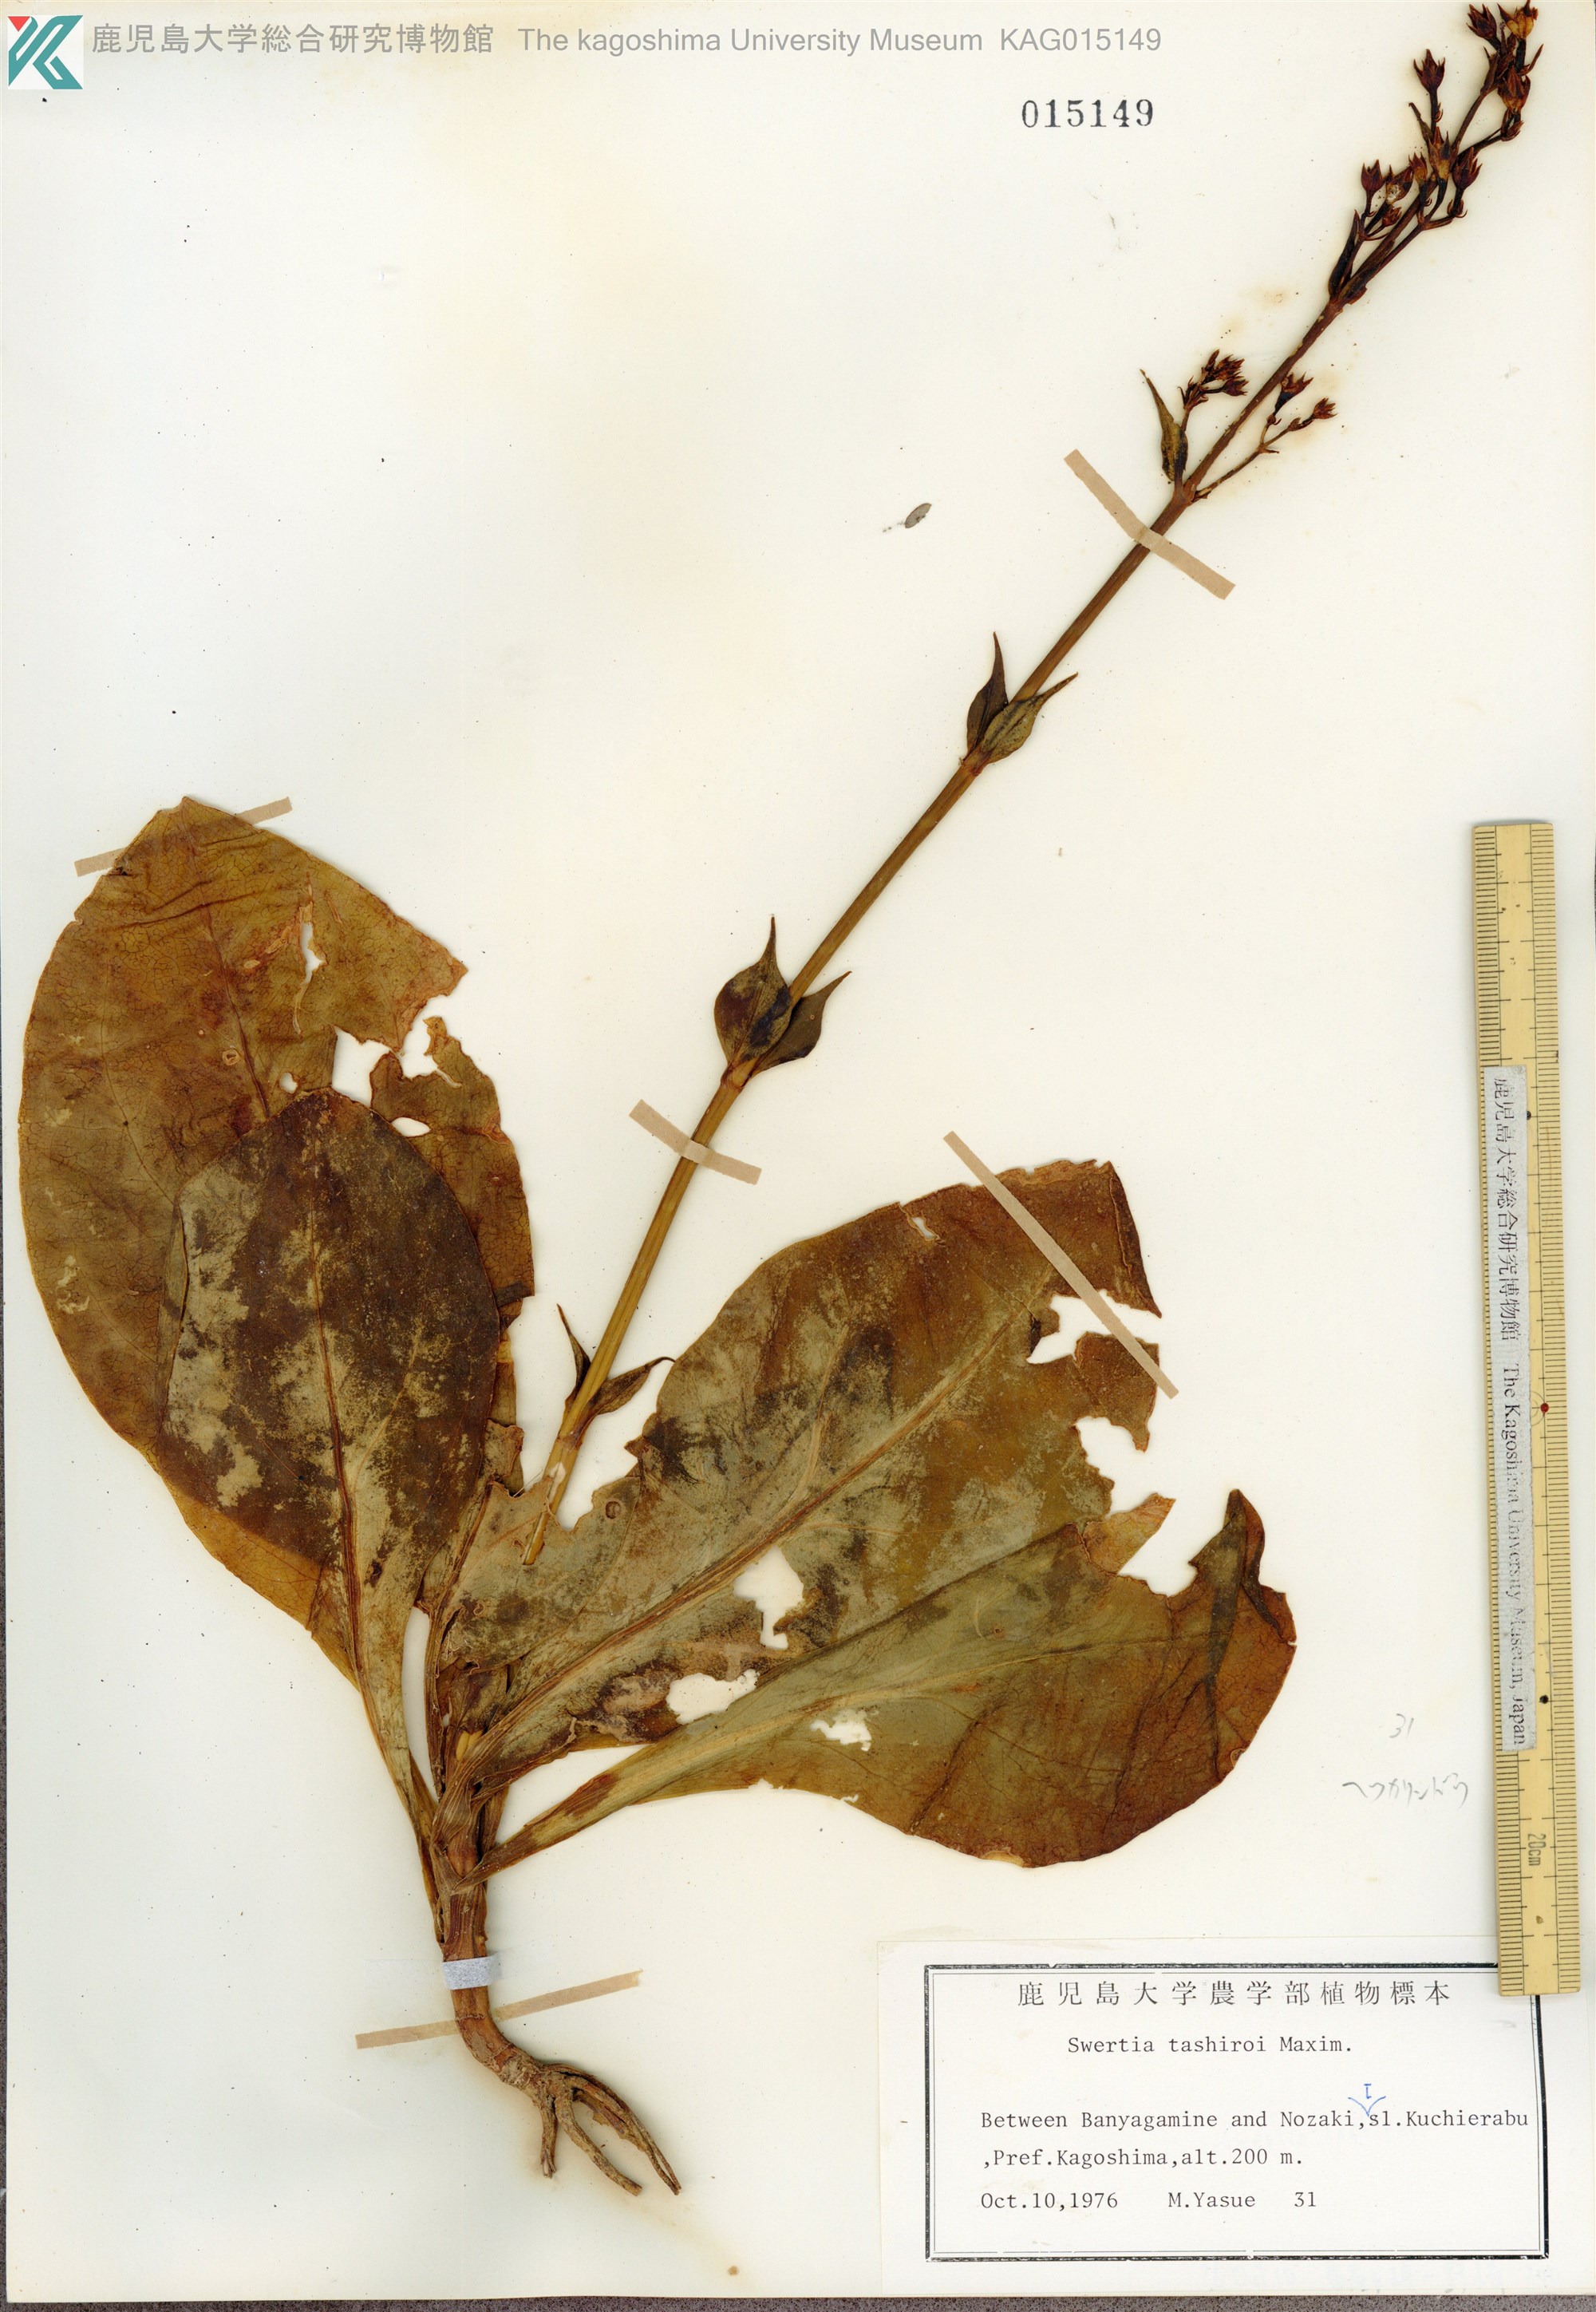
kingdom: Plantae
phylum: Tracheophyta
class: Magnoliopsida
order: Gentianales
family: Gentianaceae
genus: Swertia
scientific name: Swertia tashiroi
